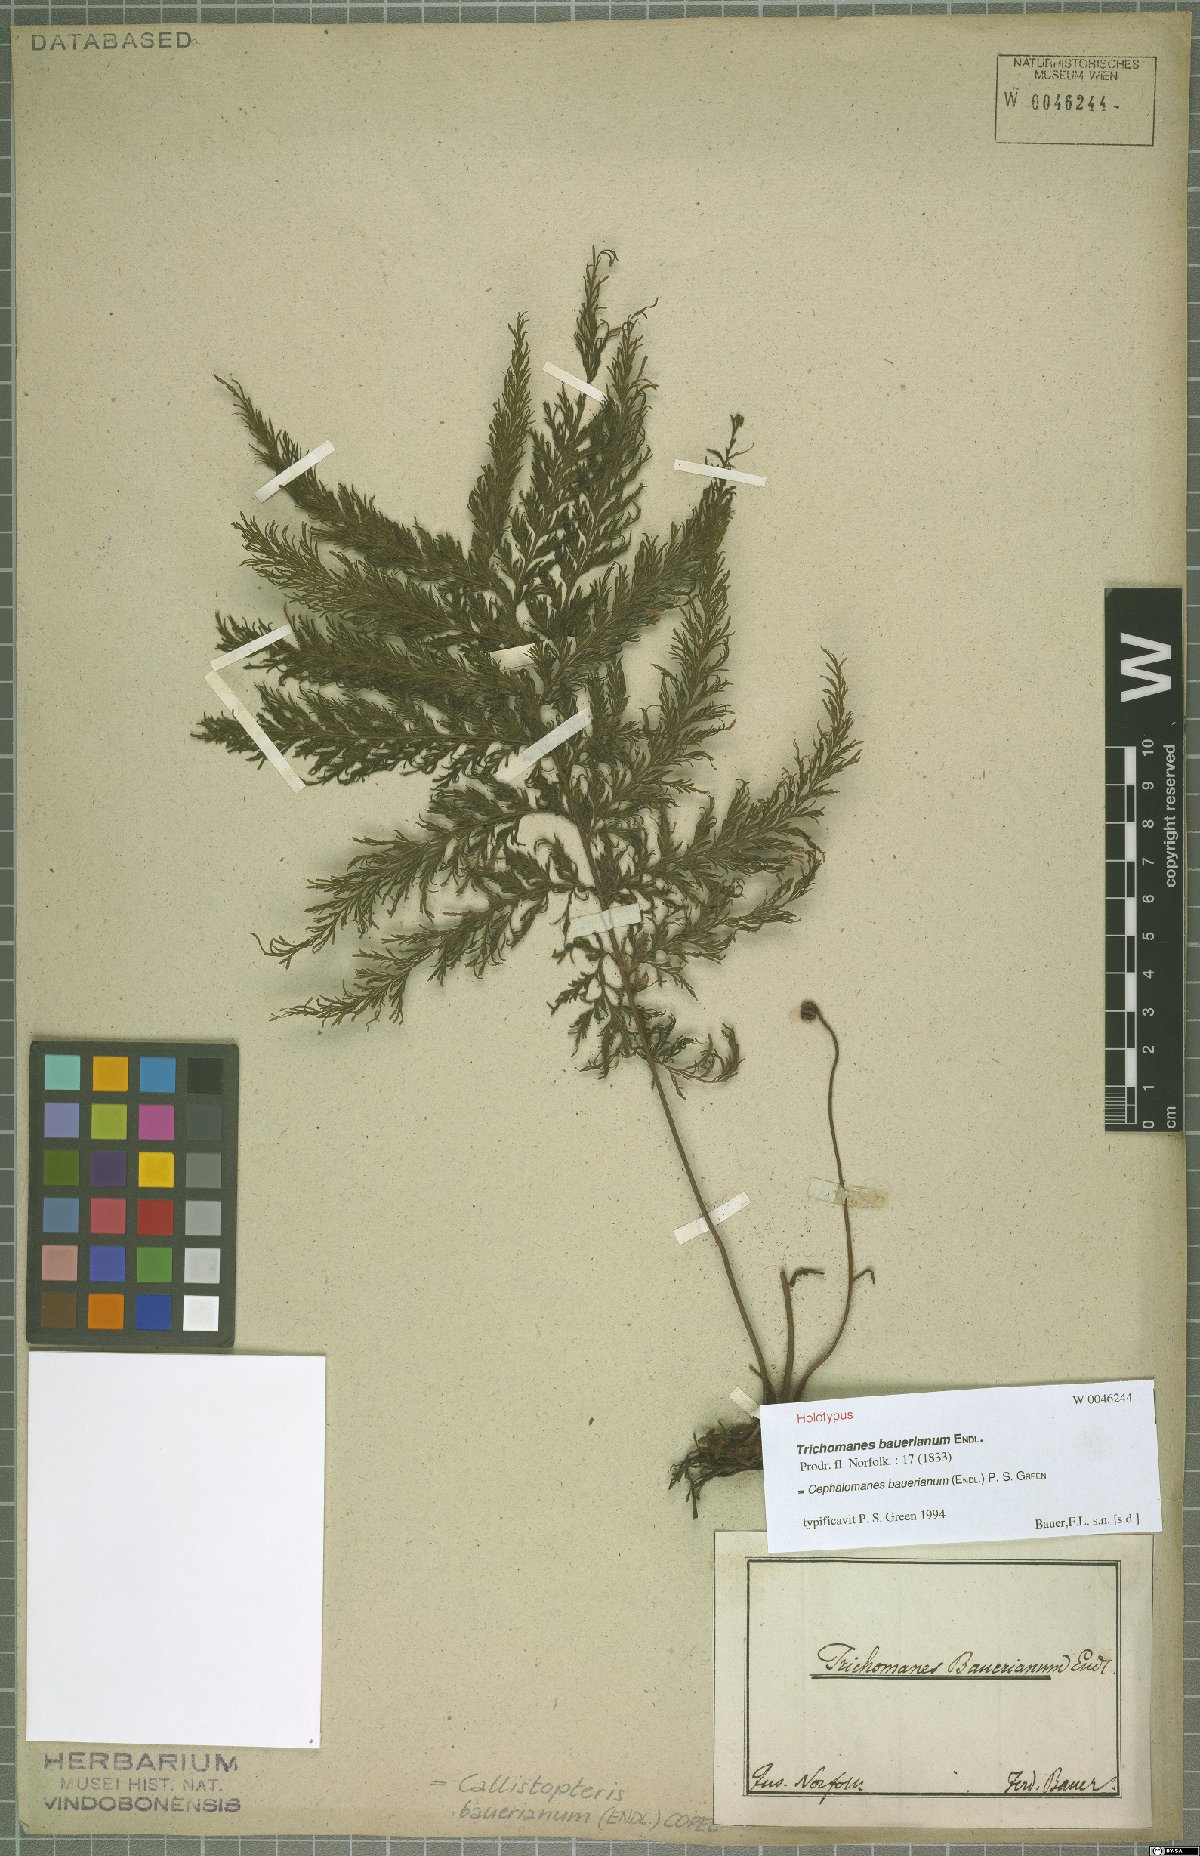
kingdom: Plantae
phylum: Tracheophyta
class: Polypodiopsida
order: Hymenophyllales
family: Hymenophyllaceae
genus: Callistopteris
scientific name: Callistopteris baueriana
